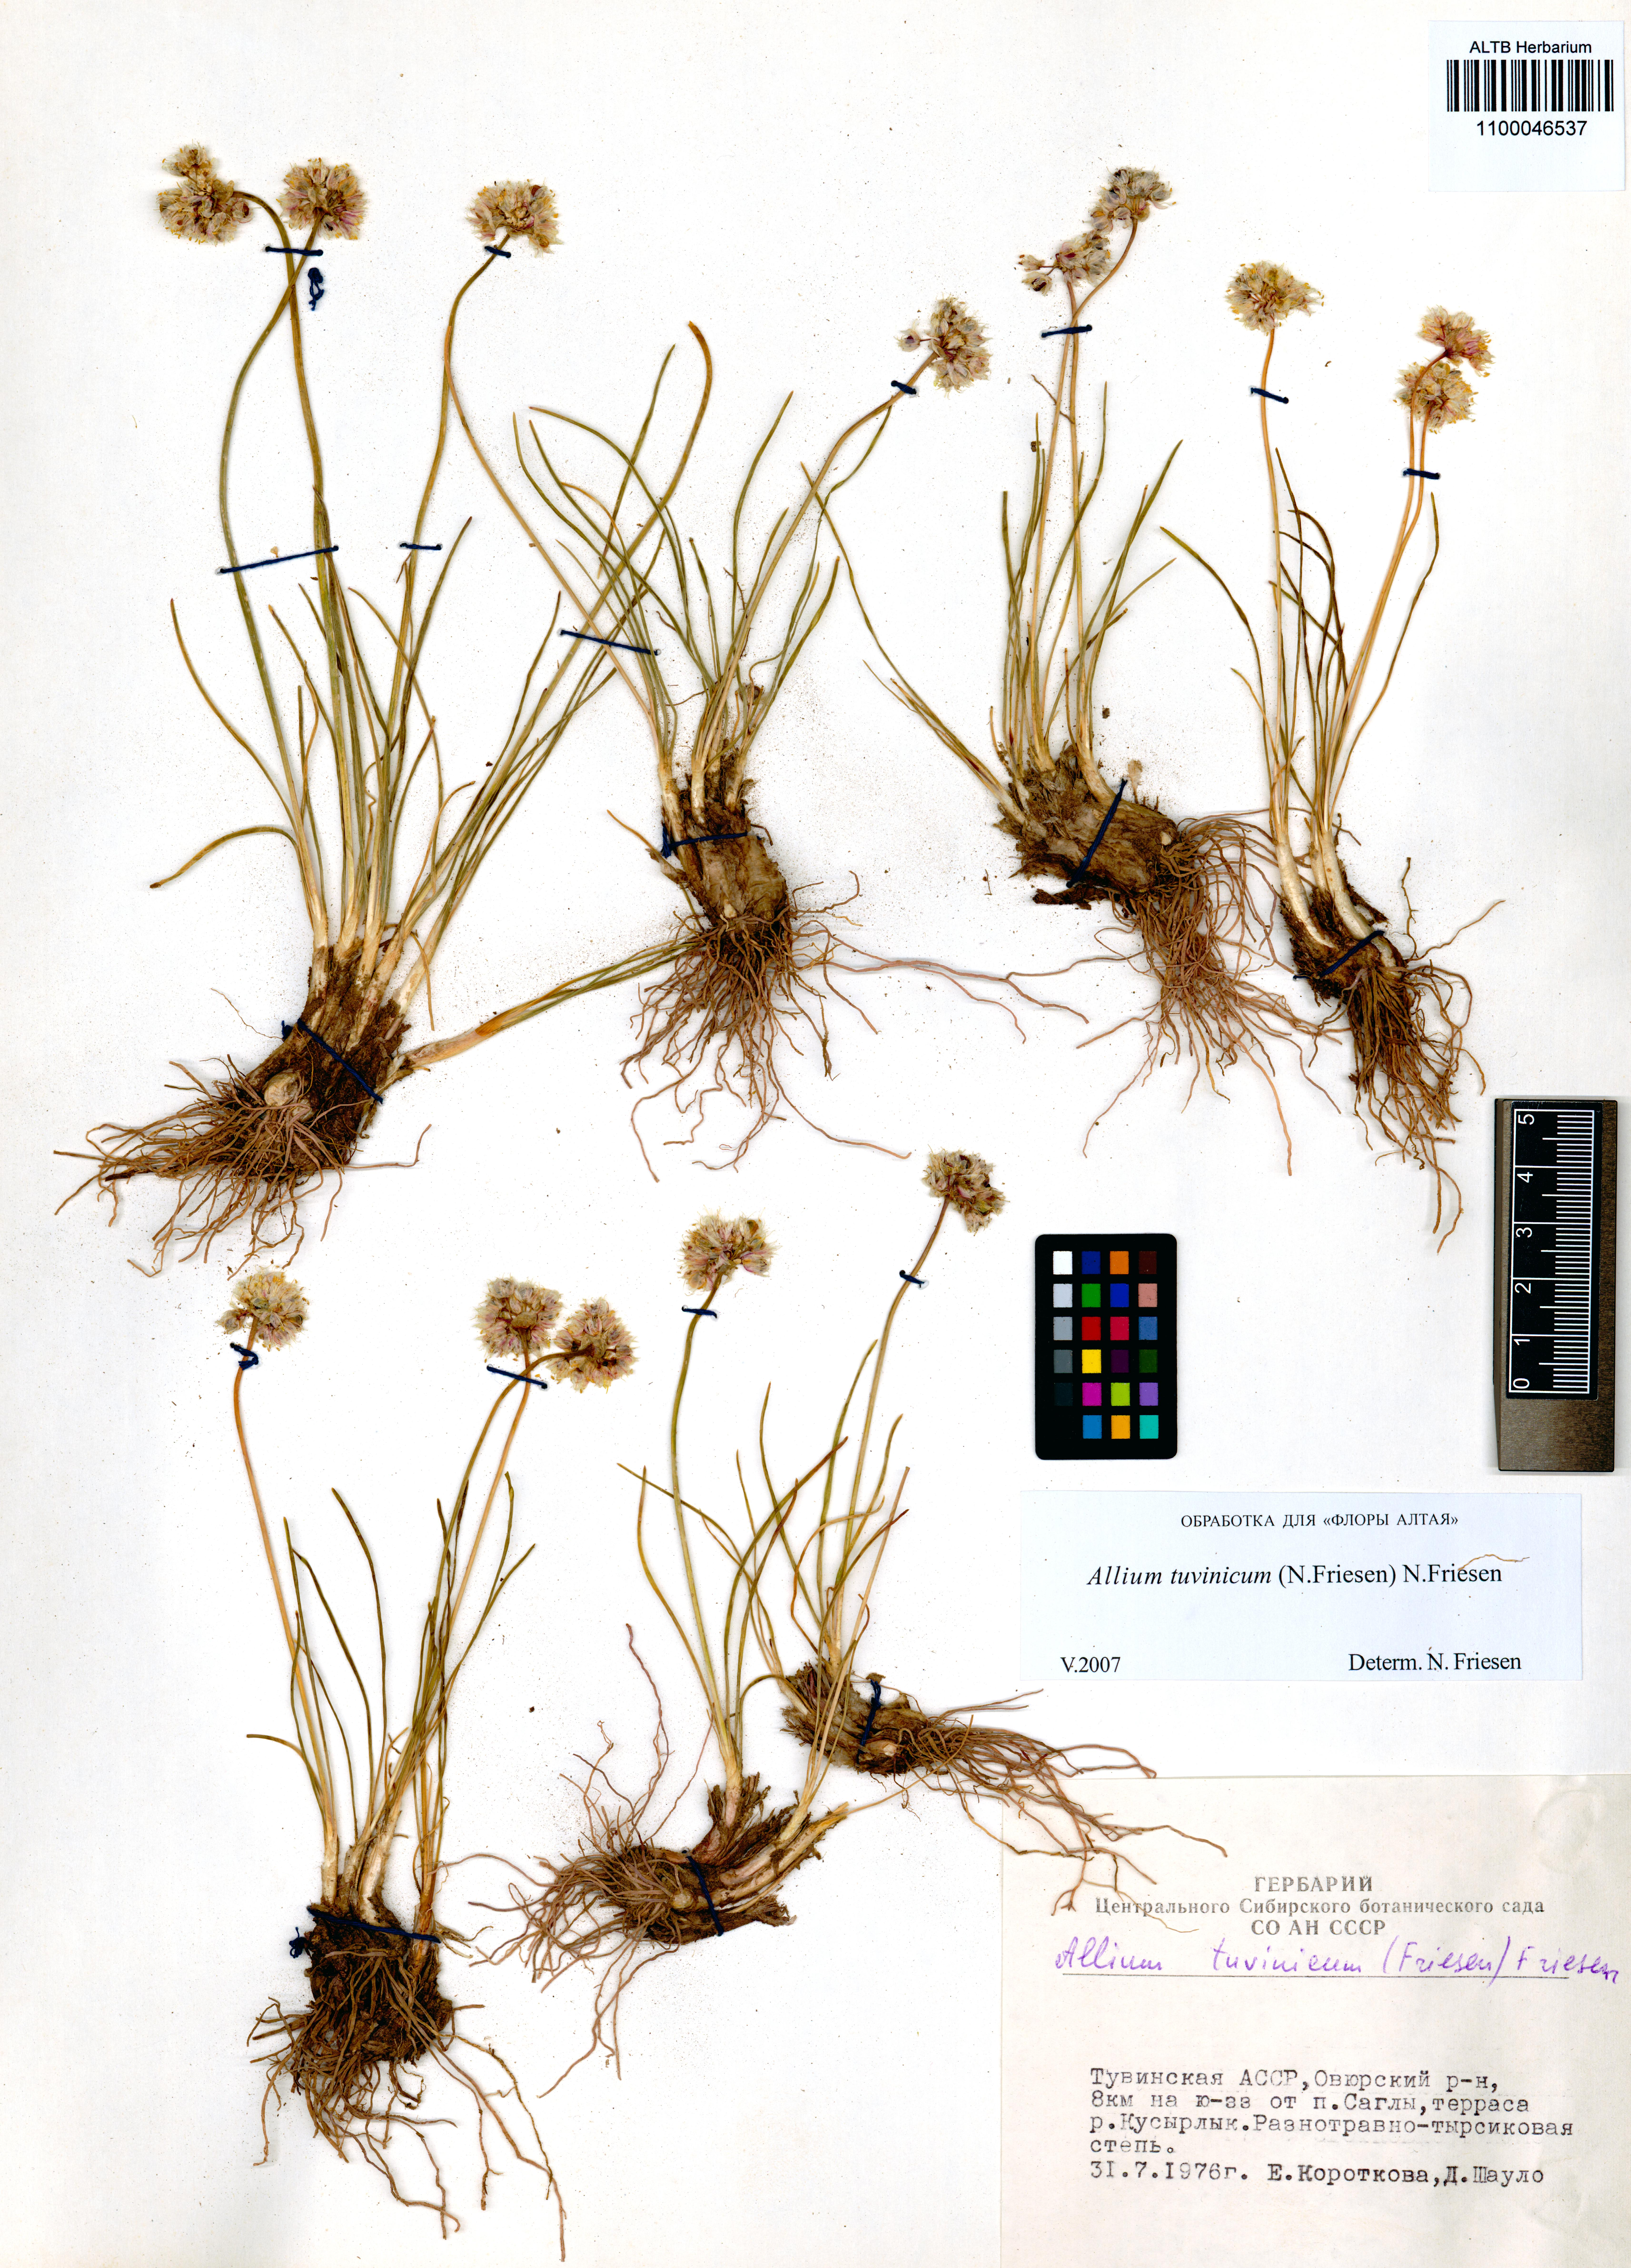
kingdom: Plantae
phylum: Tracheophyta
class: Liliopsida
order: Asparagales
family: Amaryllidaceae
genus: Allium
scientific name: Allium tuvinicum
